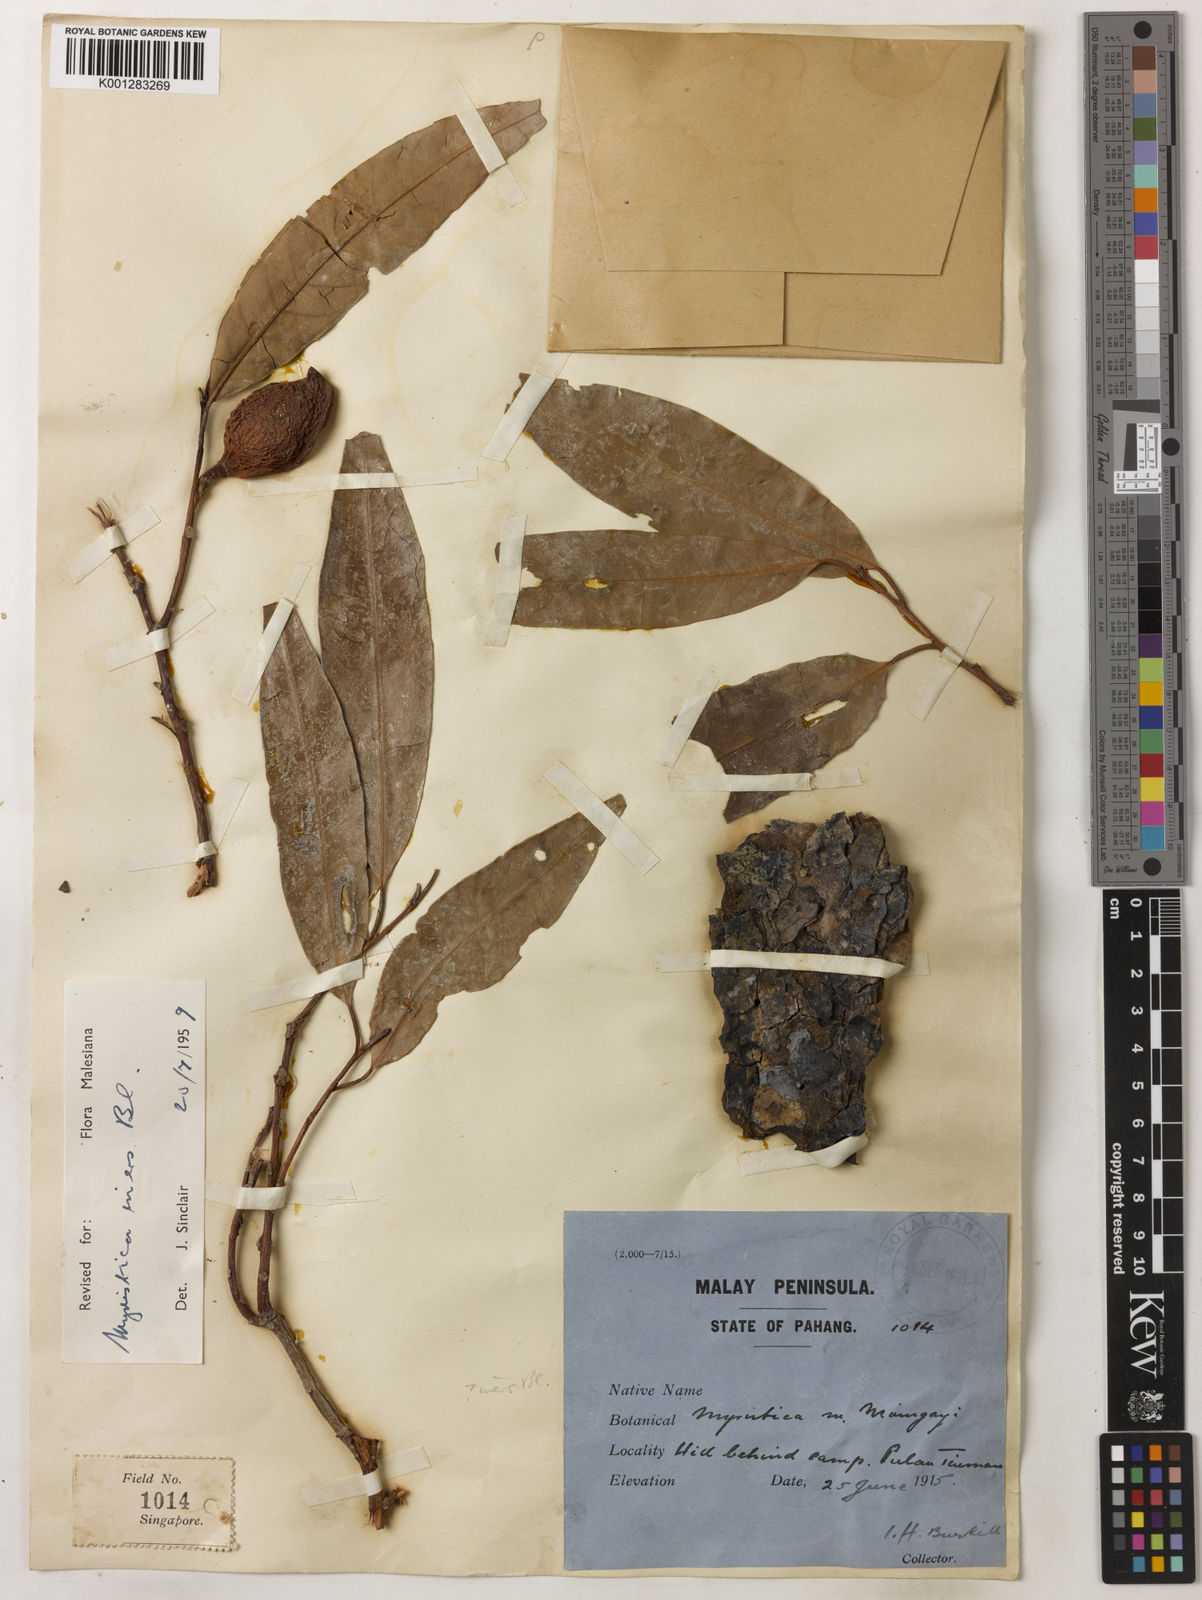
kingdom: Plantae
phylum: Tracheophyta
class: Magnoliopsida
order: Magnoliales
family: Myristicaceae
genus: Myristica
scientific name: Myristica iners
